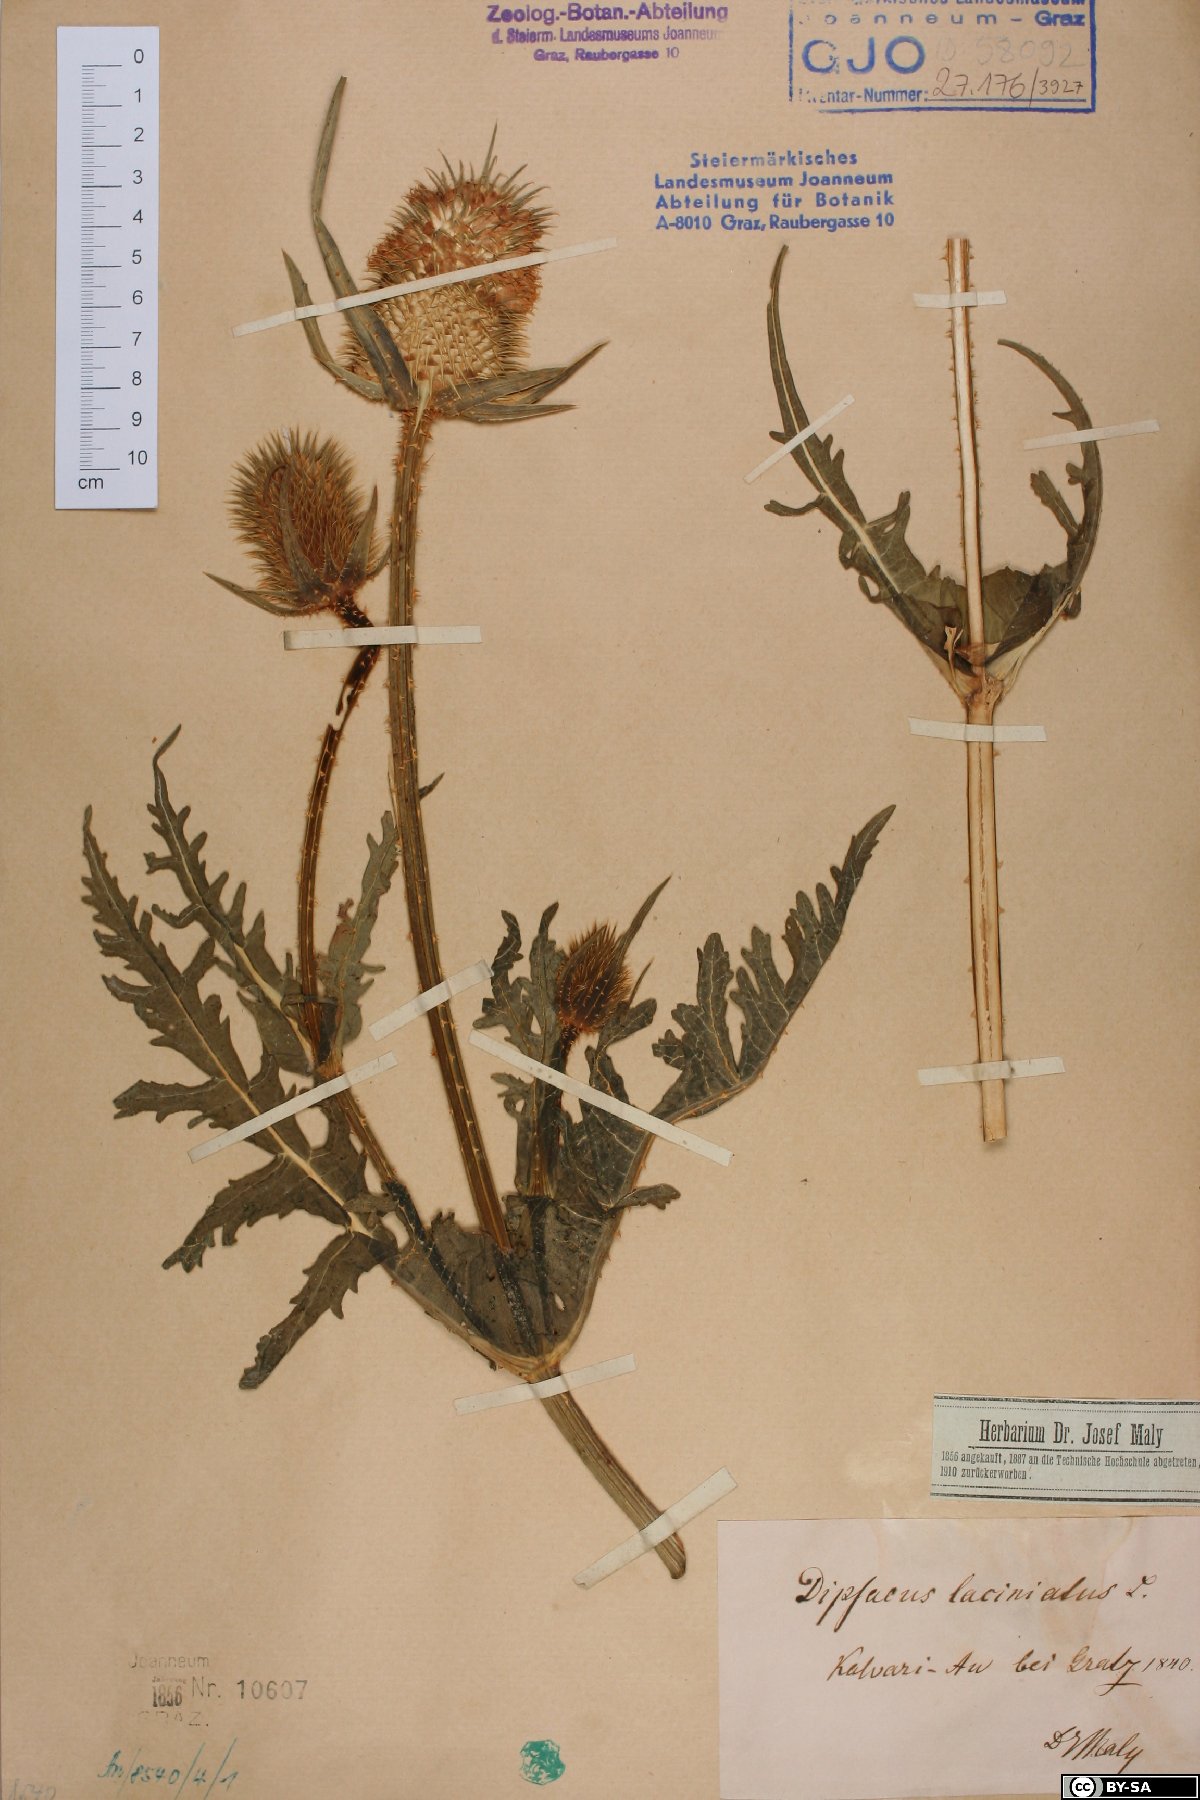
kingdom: Plantae
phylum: Tracheophyta
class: Magnoliopsida
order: Dipsacales
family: Caprifoliaceae
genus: Dipsacus
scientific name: Dipsacus laciniatus
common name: Cut-leaved teasel
